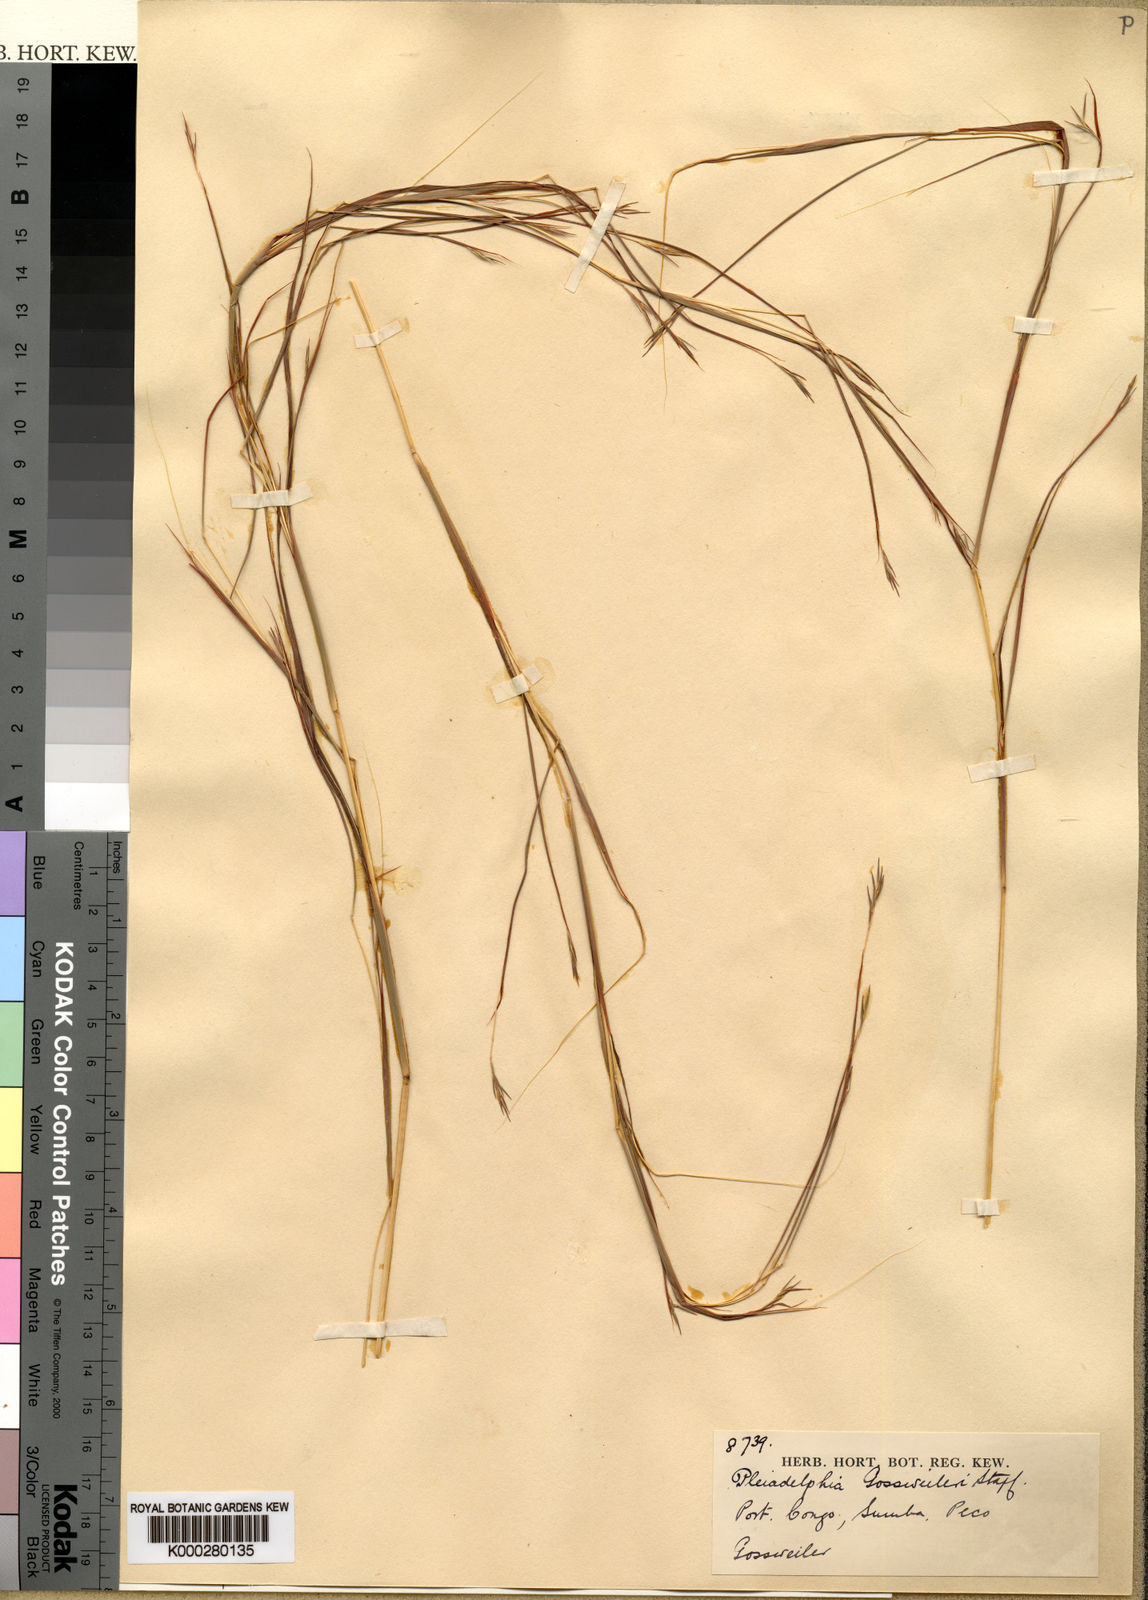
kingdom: Plantae
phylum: Tracheophyta
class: Liliopsida
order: Poales
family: Poaceae
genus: Elymandra
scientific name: Elymandra gossweileri
